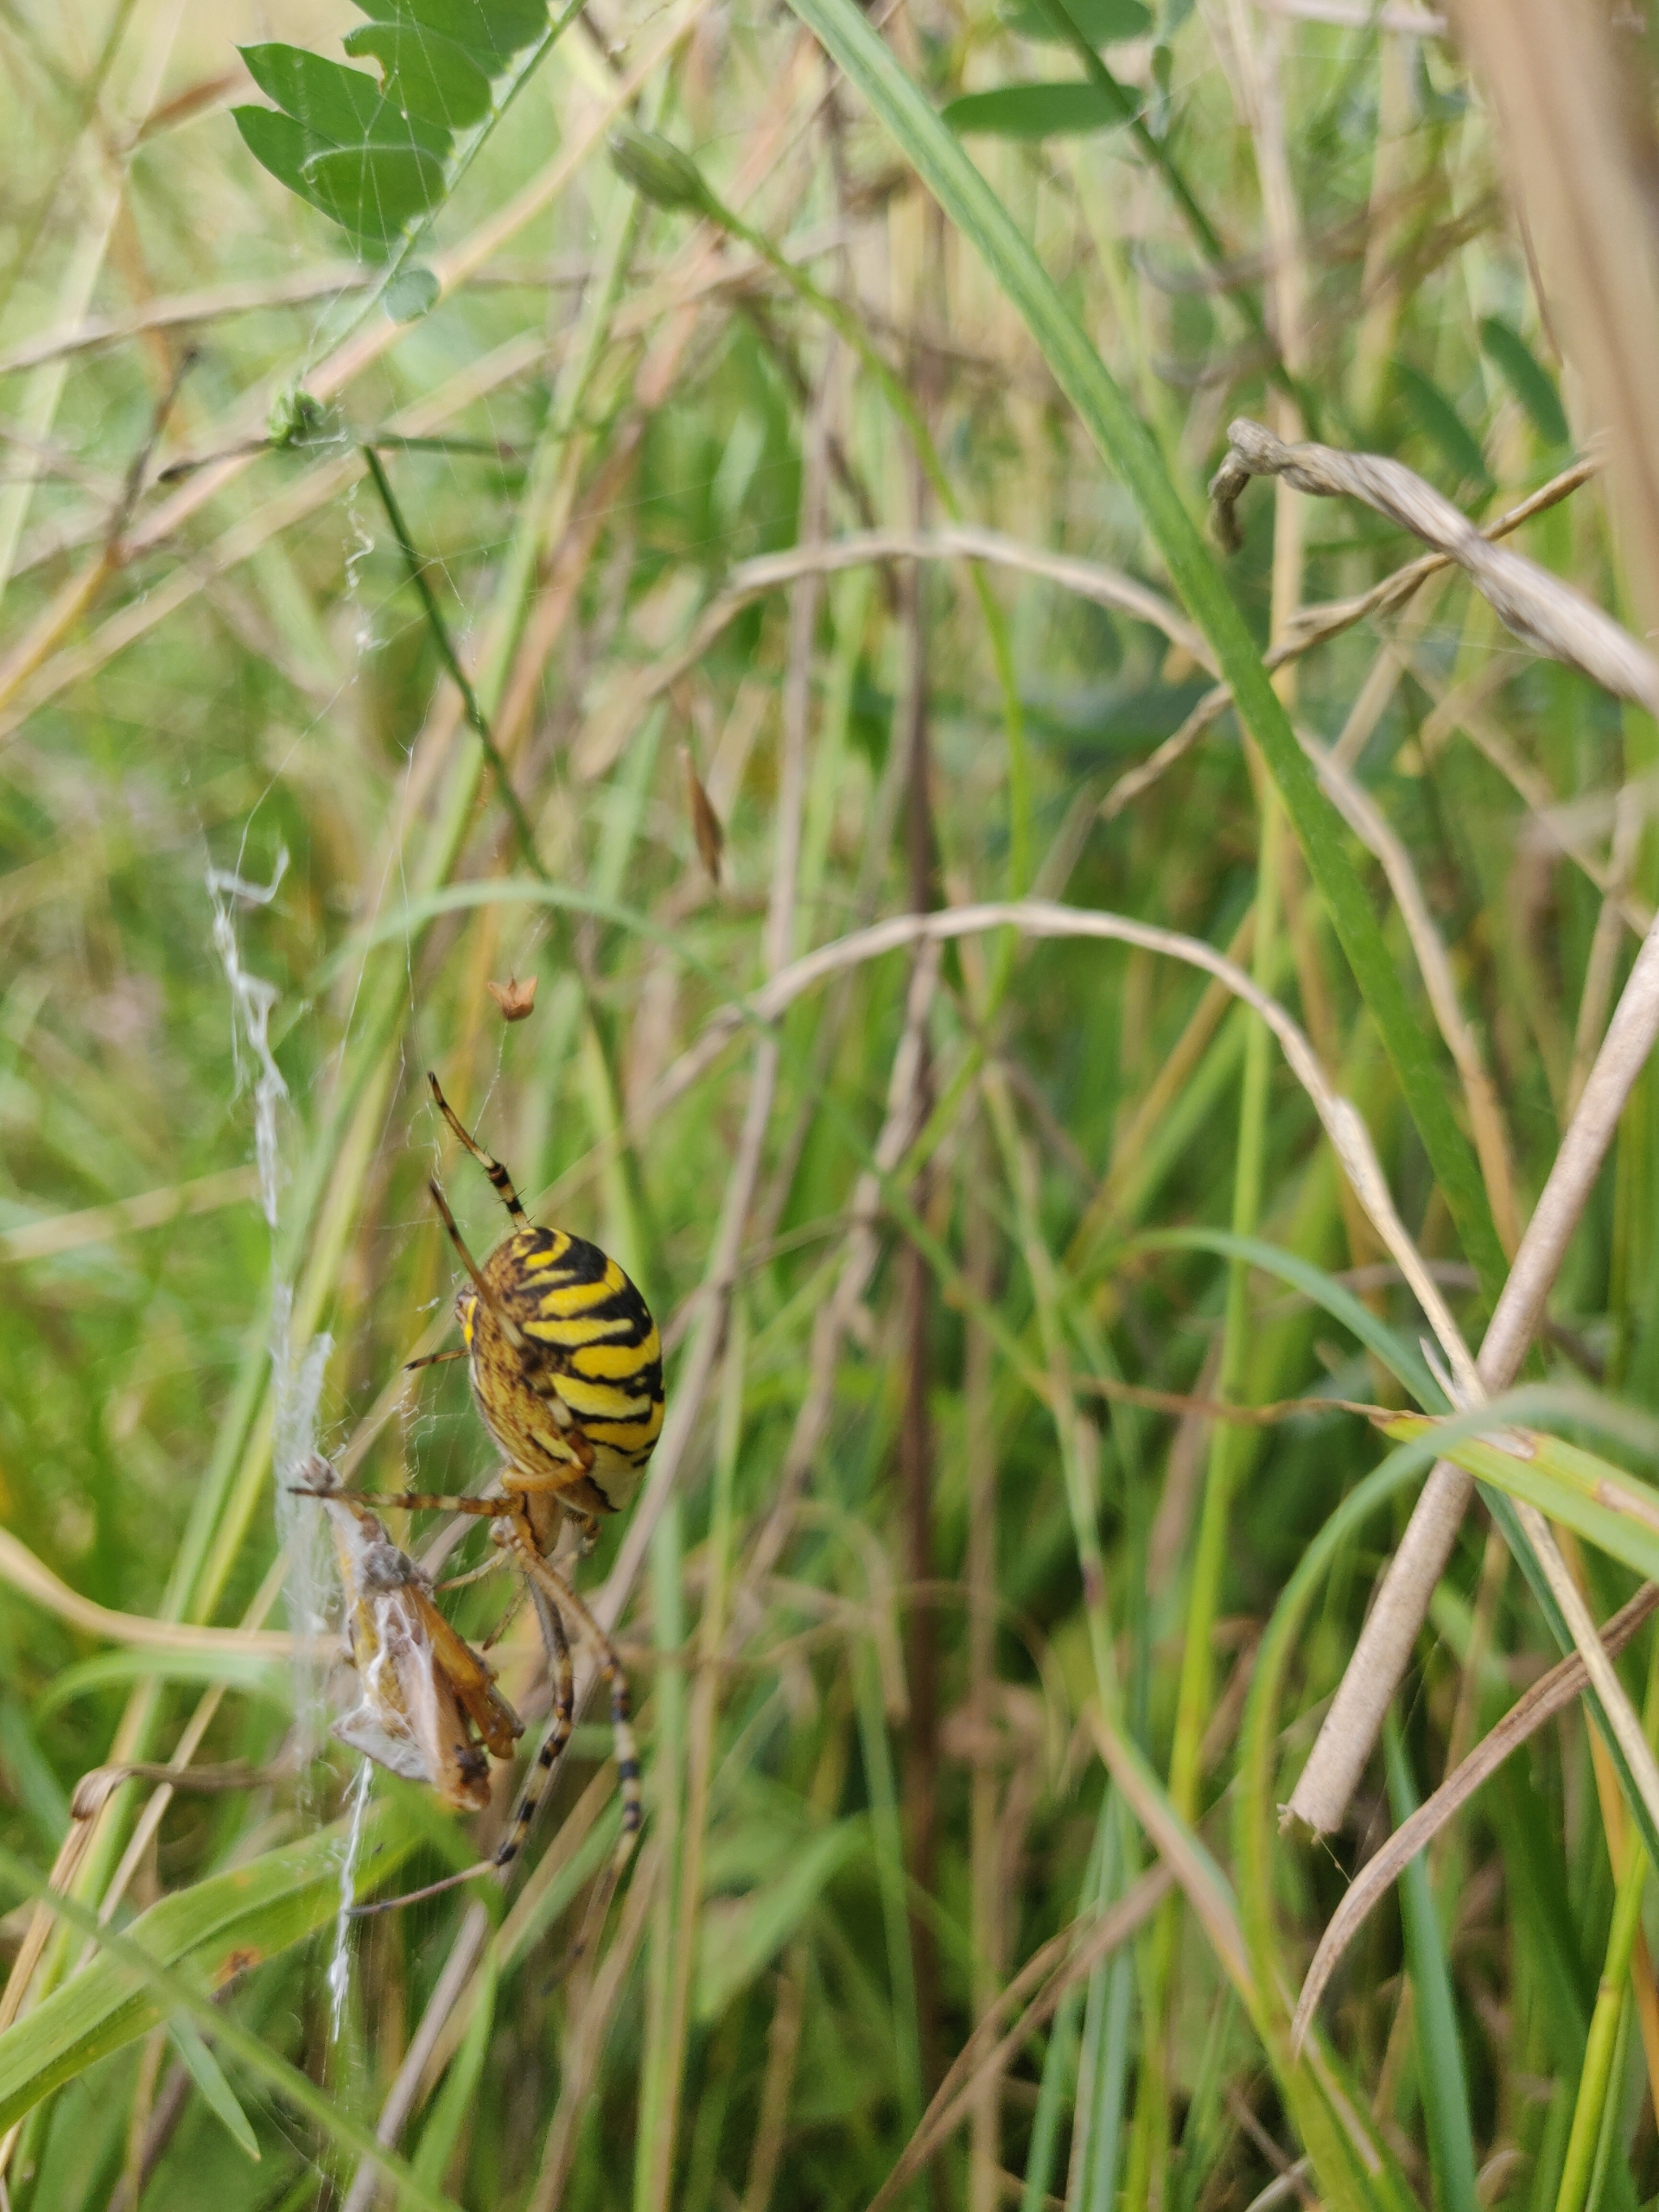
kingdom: Animalia
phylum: Arthropoda
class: Arachnida
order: Araneae
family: Araneidae
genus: Argiope
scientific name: Argiope bruennichi
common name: Hvepseedderkop
